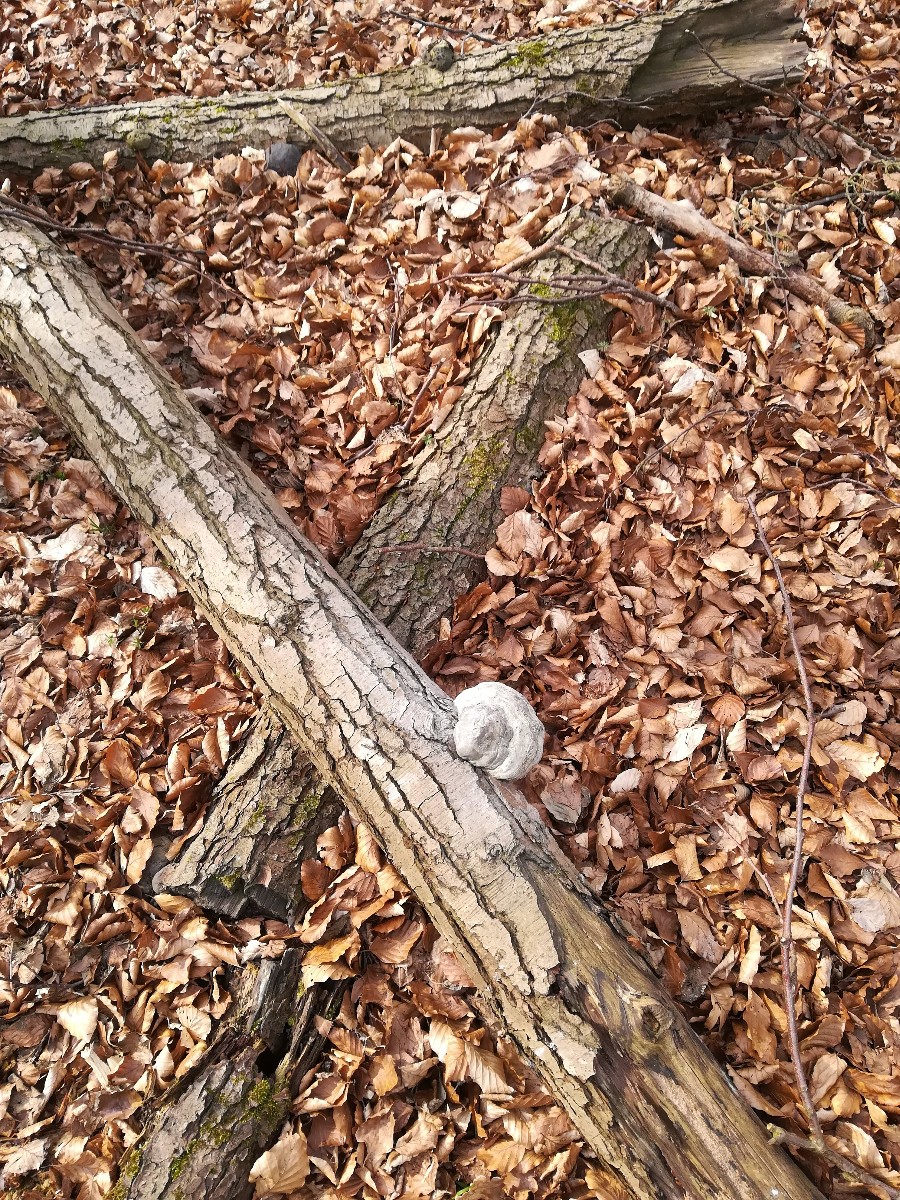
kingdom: Fungi
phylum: Basidiomycota
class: Agaricomycetes
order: Polyporales
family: Polyporaceae
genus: Fomes
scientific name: Fomes fomentarius
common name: tøndersvamp
